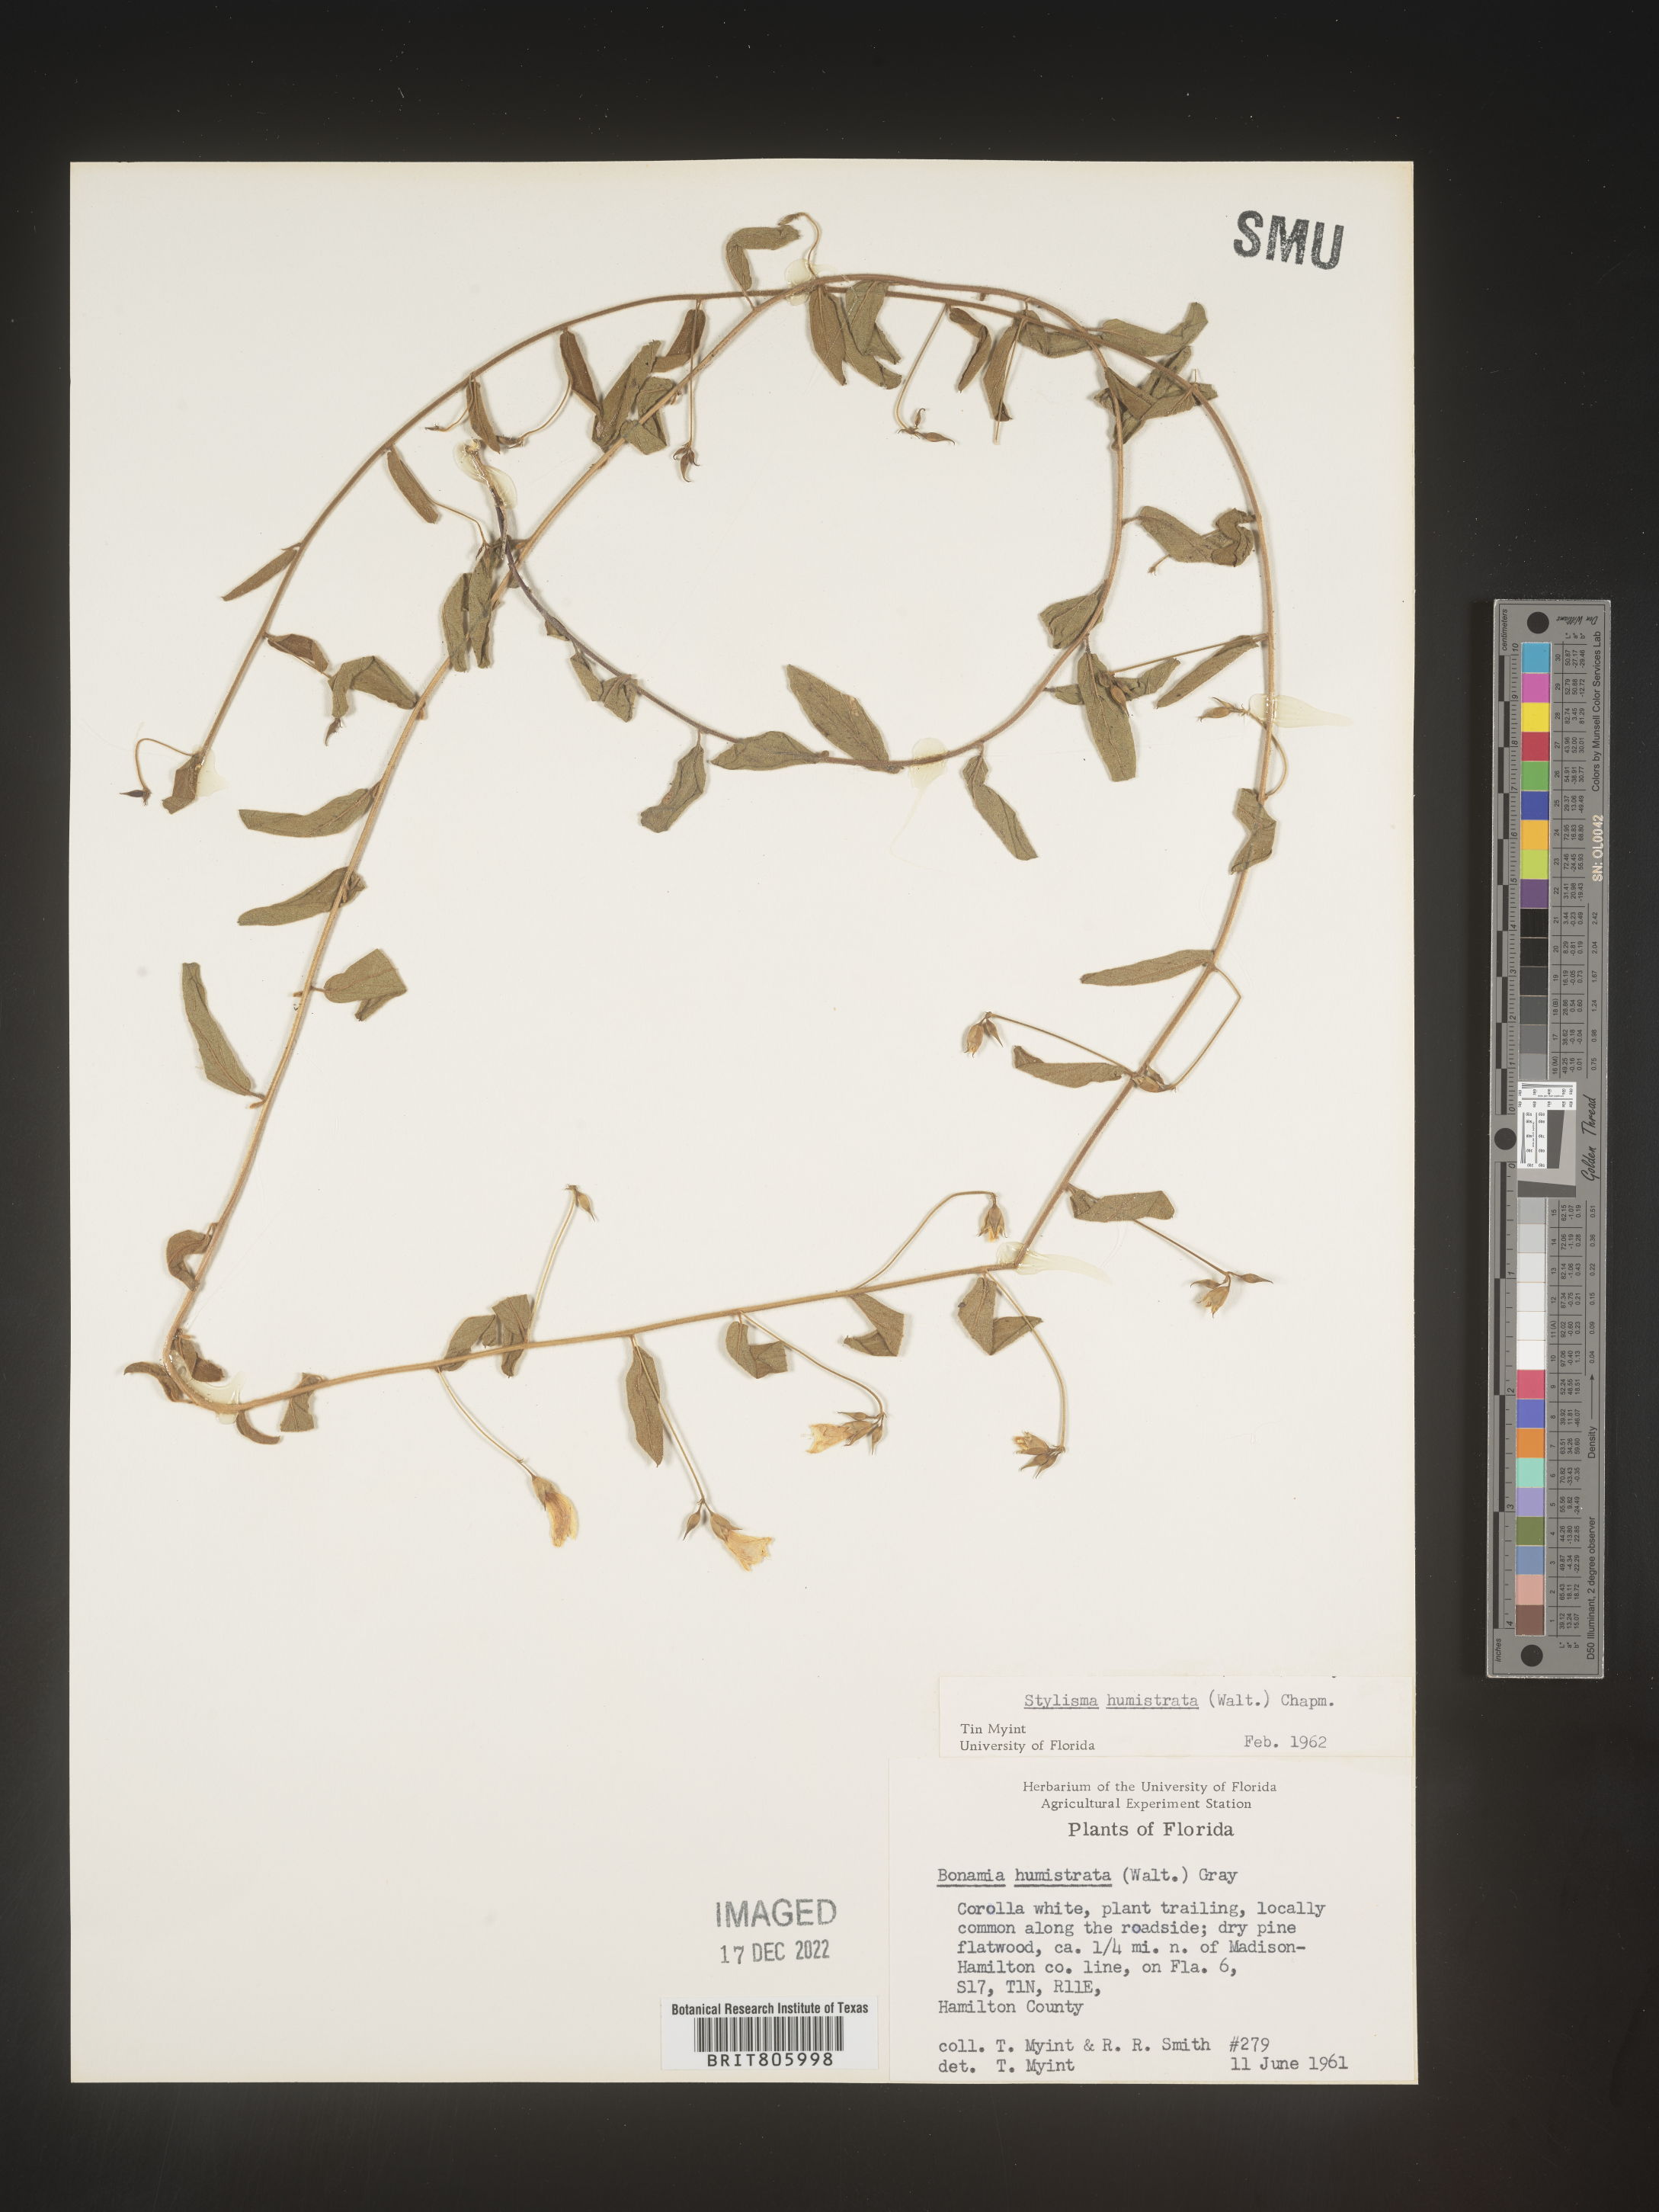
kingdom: Plantae
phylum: Tracheophyta
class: Magnoliopsida
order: Solanales
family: Convolvulaceae
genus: Stylisma
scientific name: Stylisma humistrata
